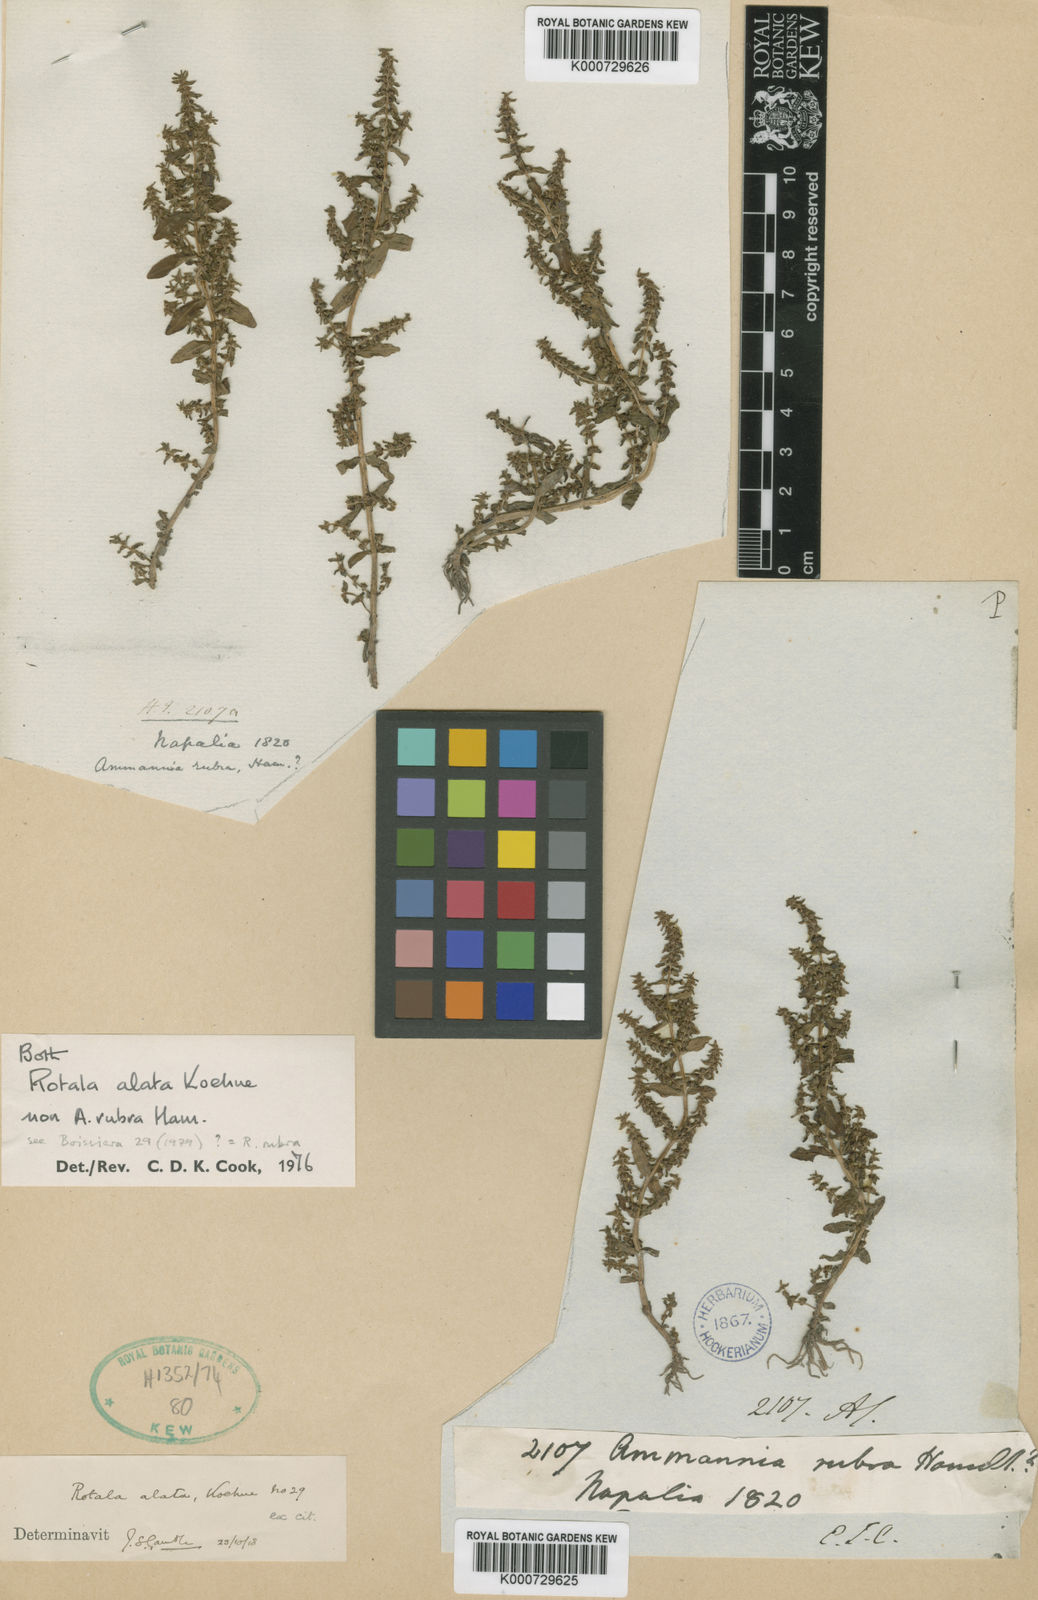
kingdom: Plantae
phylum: Tracheophyta
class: Magnoliopsida
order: Myrtales
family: Lythraceae
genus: Rotala
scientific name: Rotala rubra
